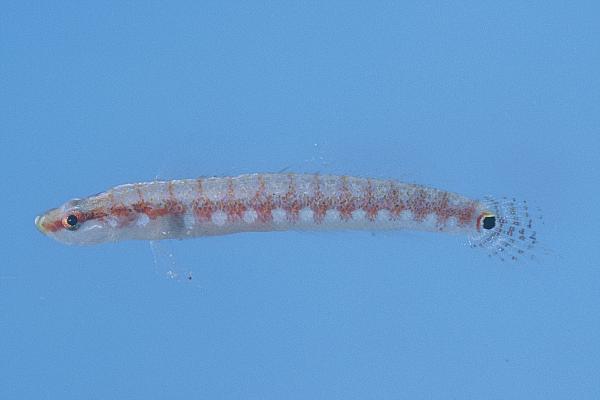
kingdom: Animalia
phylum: Chordata
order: Perciformes
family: Xenisthmidae
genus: Xenisthmus
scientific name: Xenisthmus
